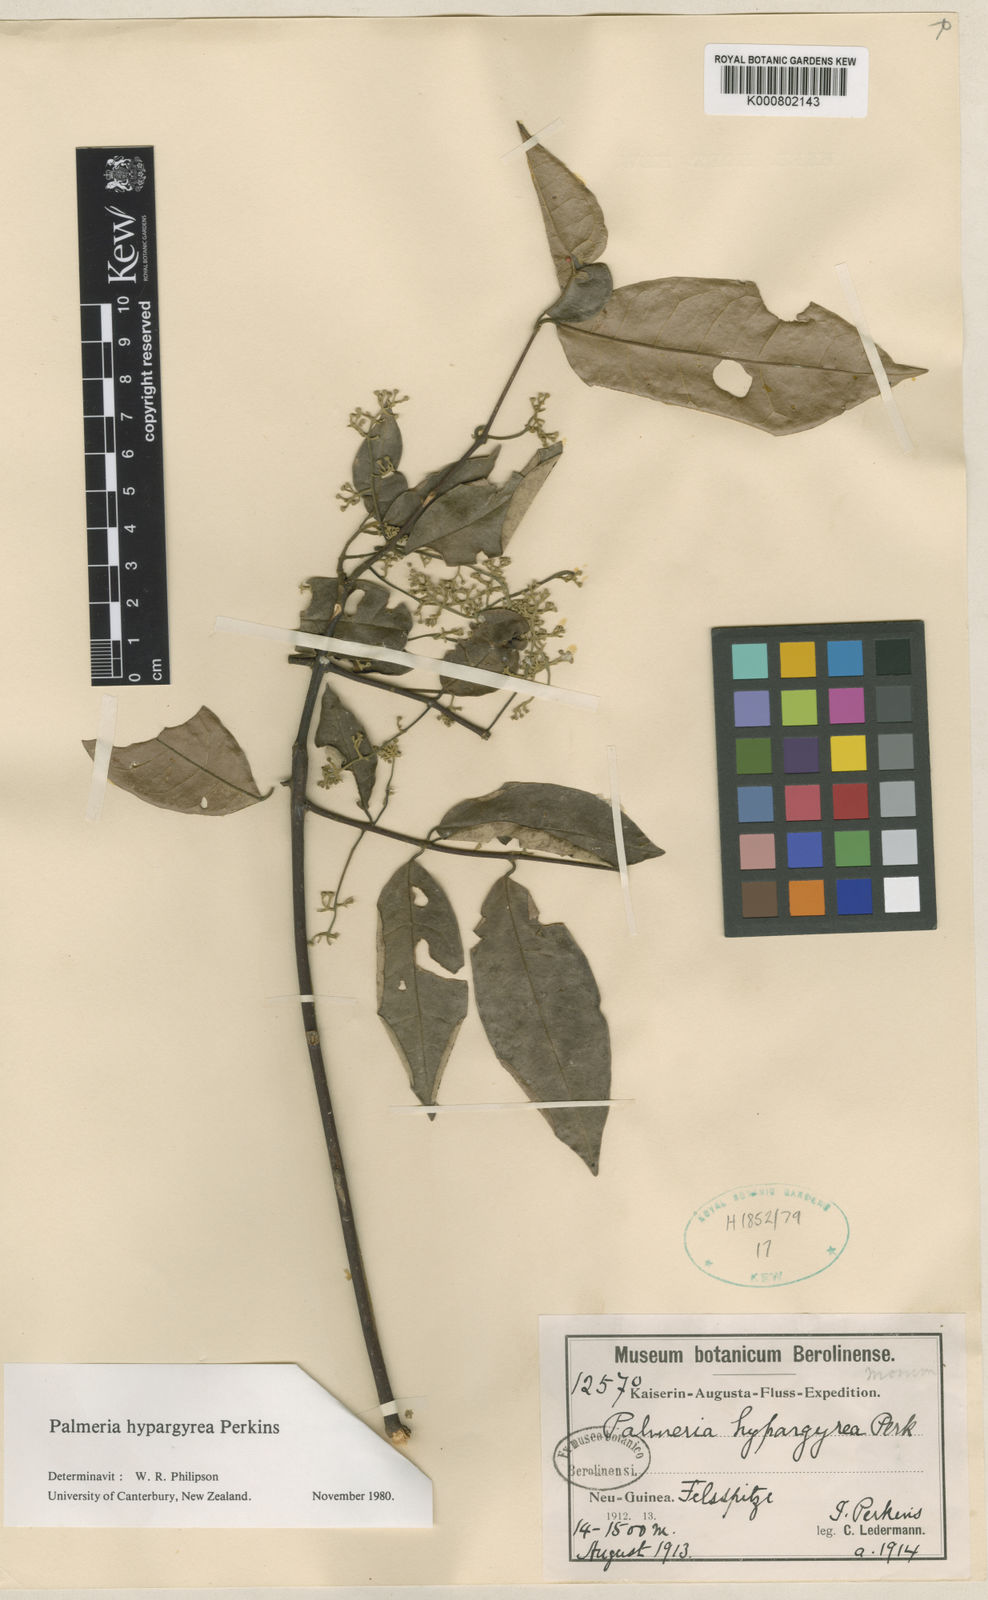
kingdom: Plantae
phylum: Tracheophyta
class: Magnoliopsida
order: Laurales
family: Monimiaceae
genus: Palmeria
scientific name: Palmeria hypargyrea
